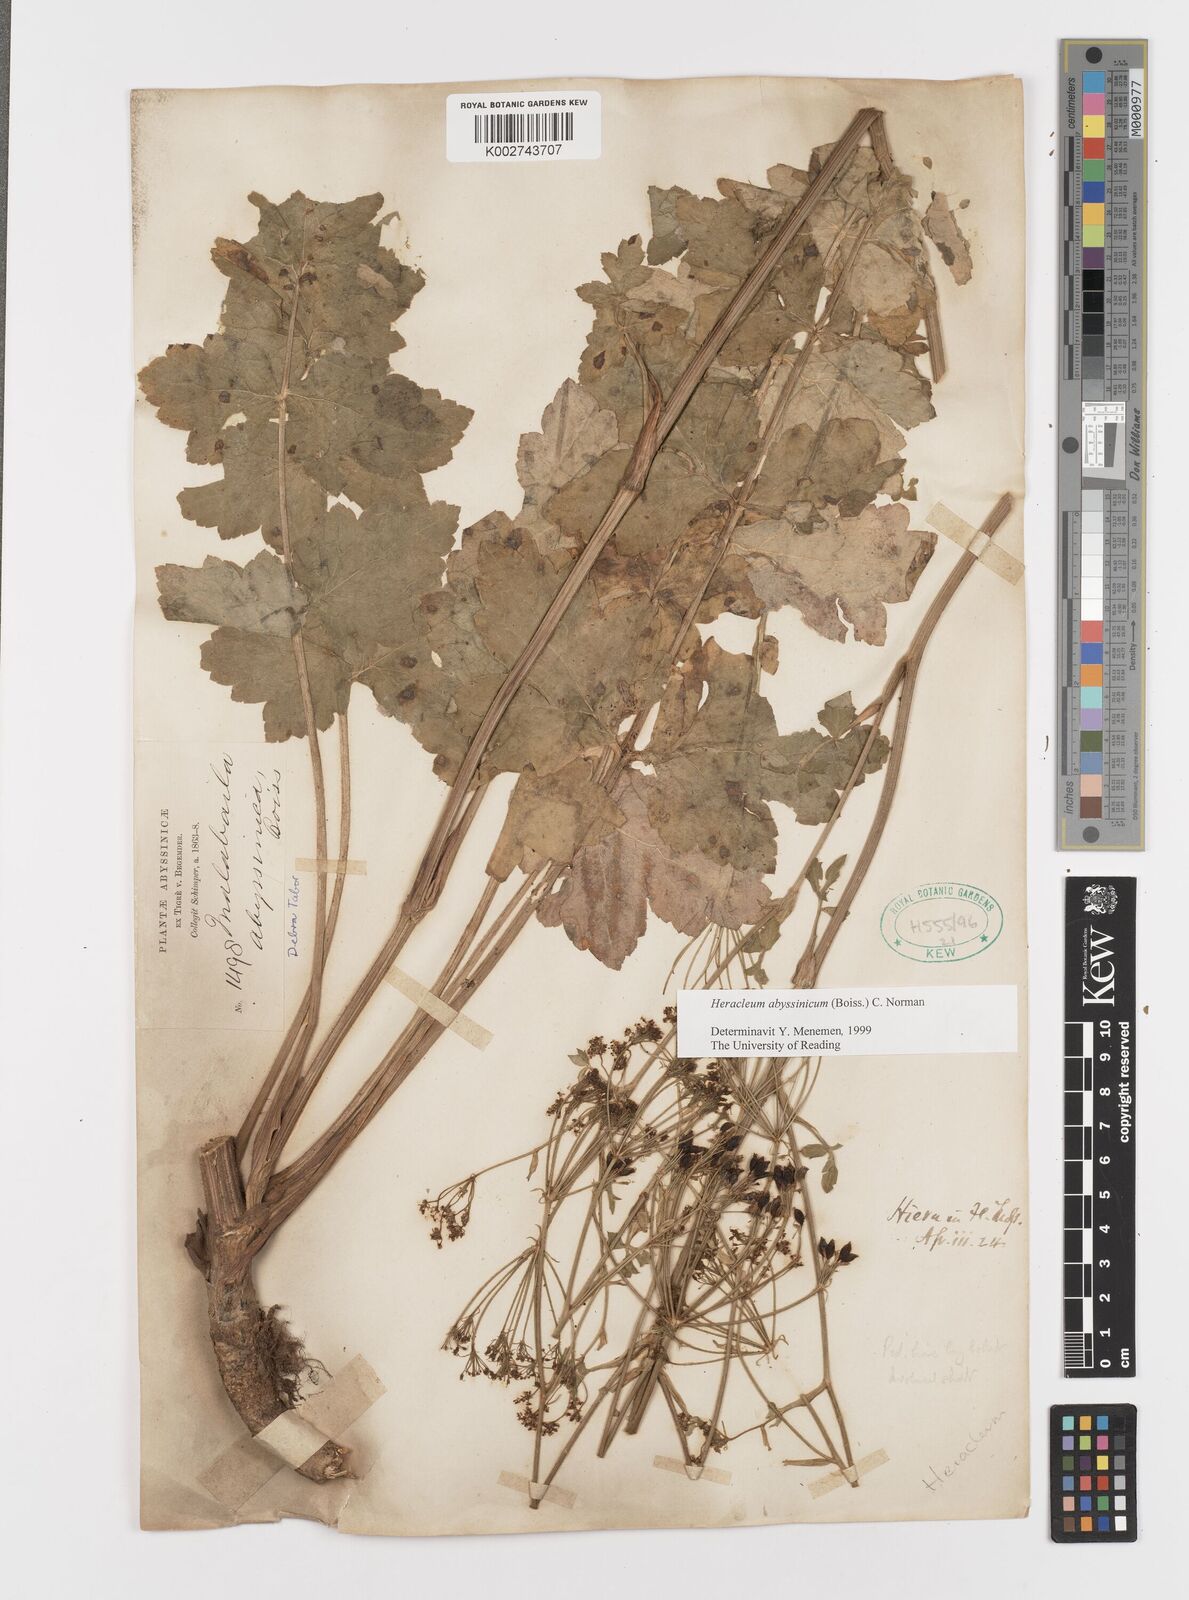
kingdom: Plantae
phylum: Tracheophyta
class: Magnoliopsida
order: Apiales
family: Apiaceae
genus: Heracleum
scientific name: Heracleum abyssinicum
